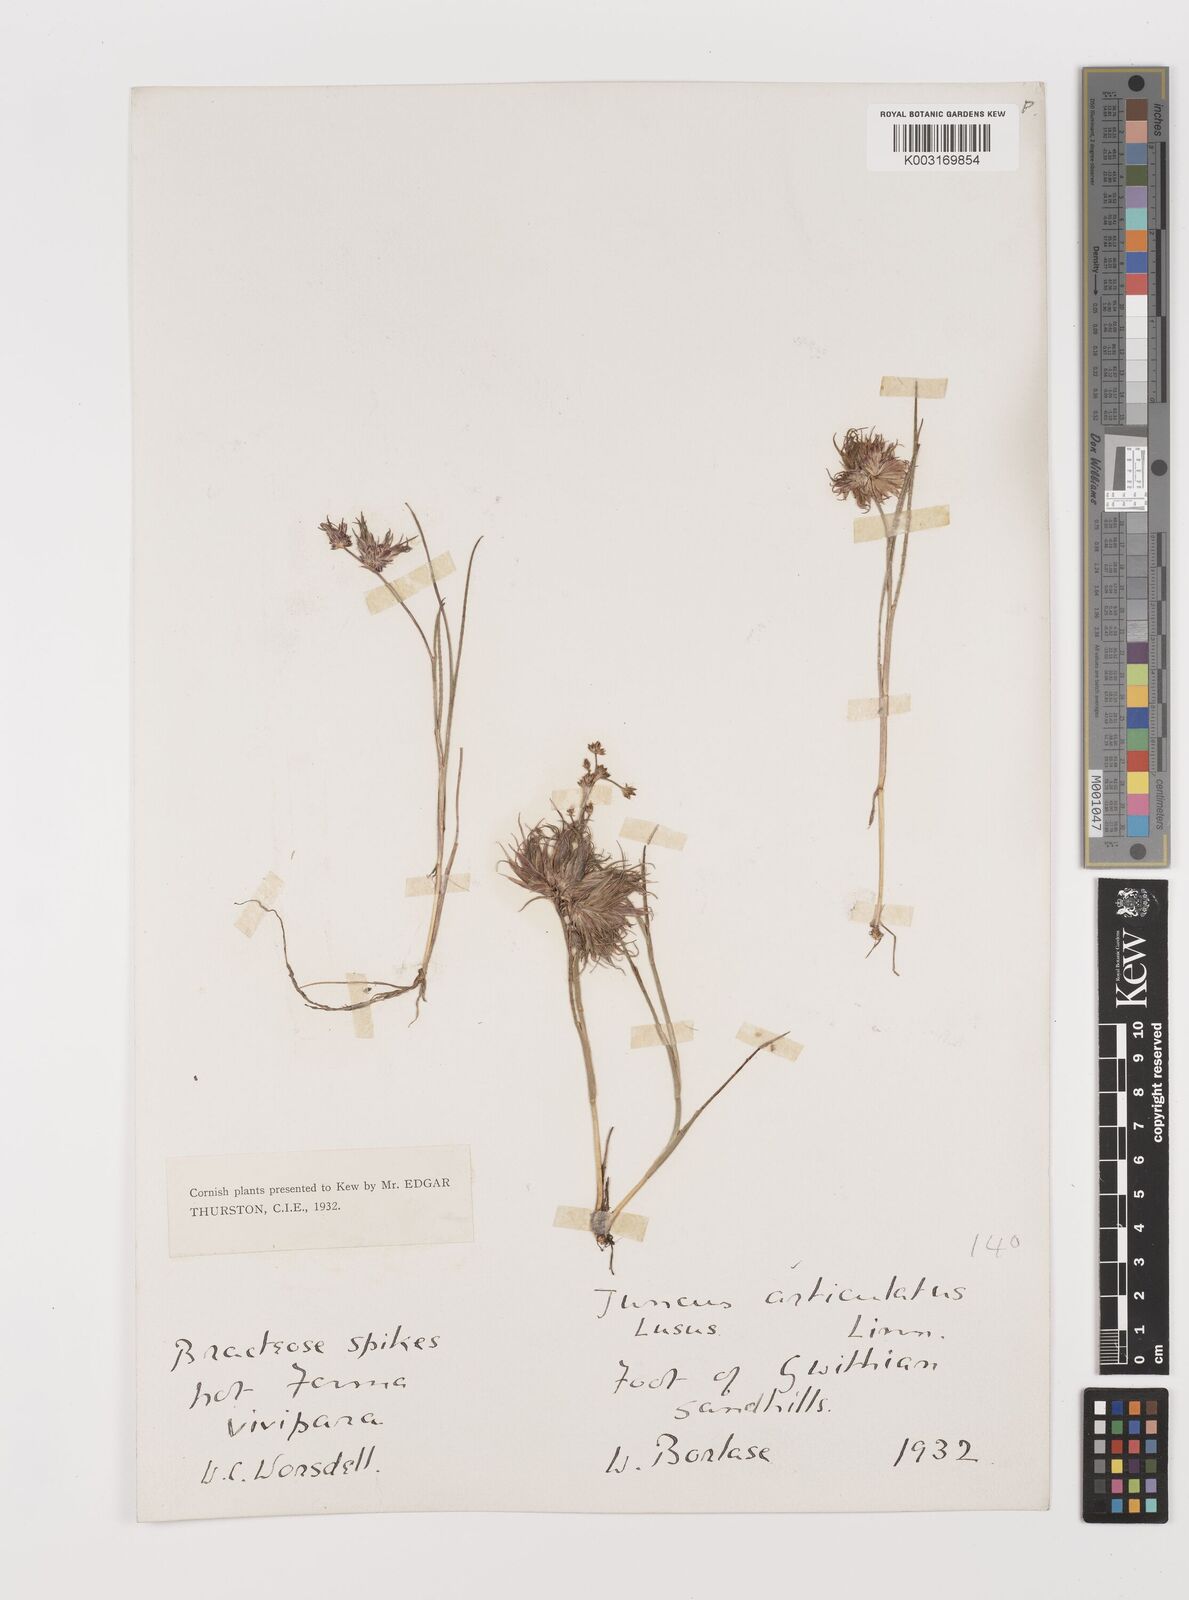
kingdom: Plantae
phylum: Tracheophyta
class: Liliopsida
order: Poales
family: Juncaceae
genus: Juncus
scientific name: Juncus articulatus
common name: Jointed rush
